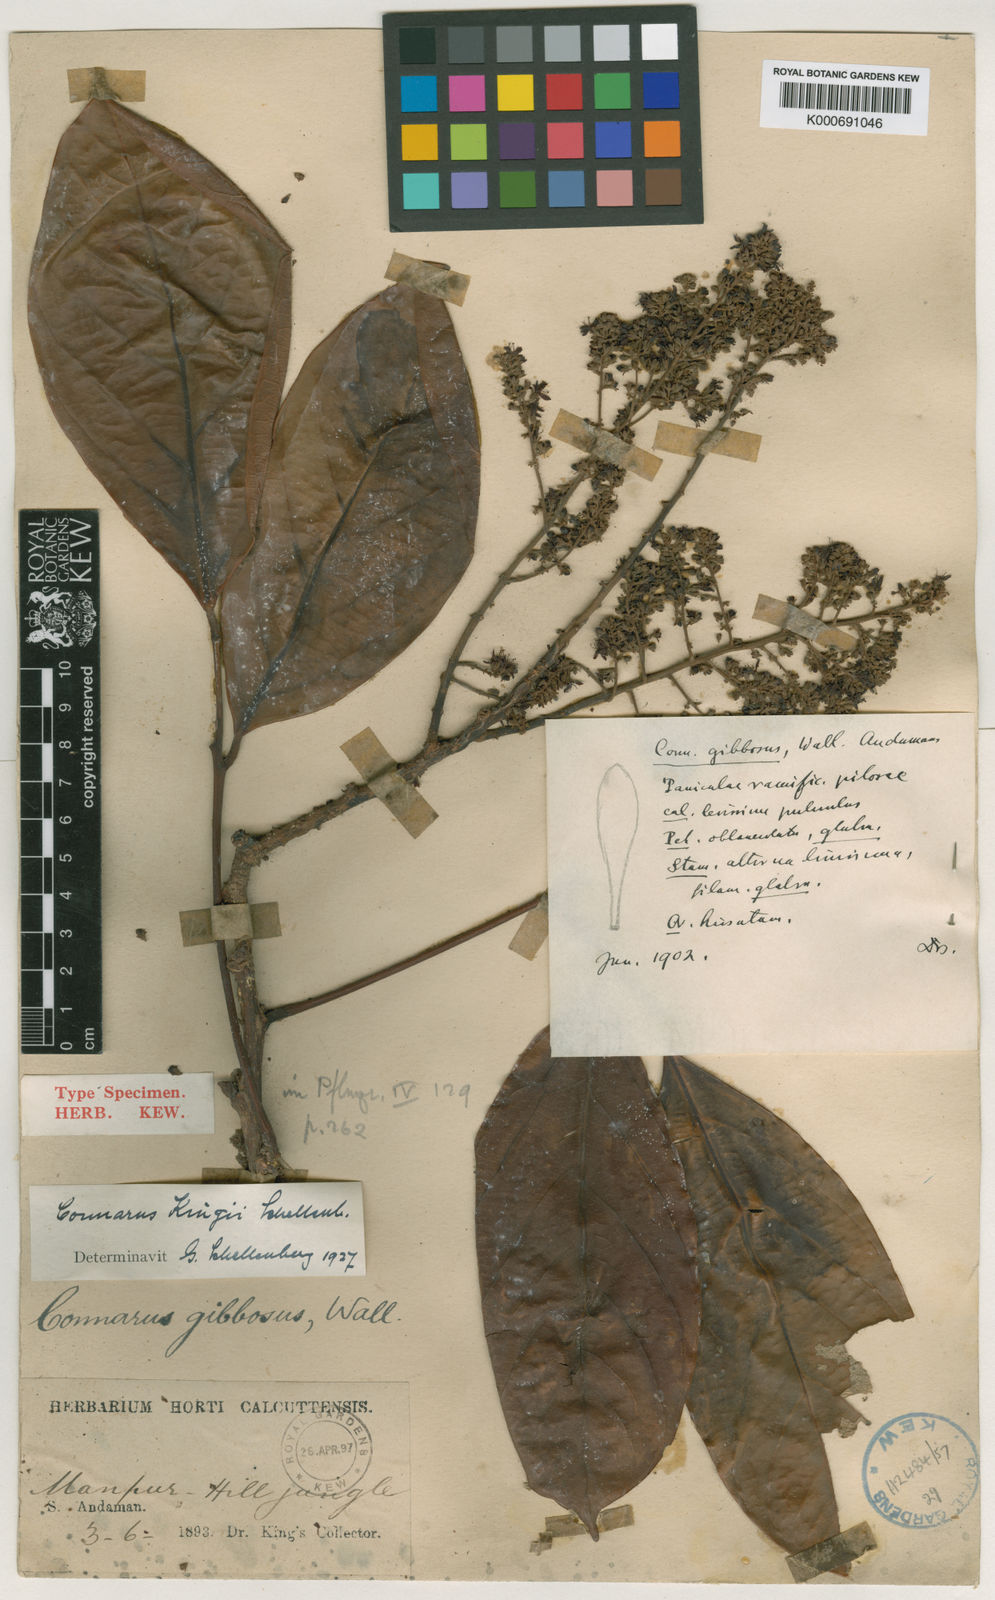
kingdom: Plantae
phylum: Tracheophyta
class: Magnoliopsida
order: Oxalidales
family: Connaraceae
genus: Connarus
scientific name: Connarus kingii
